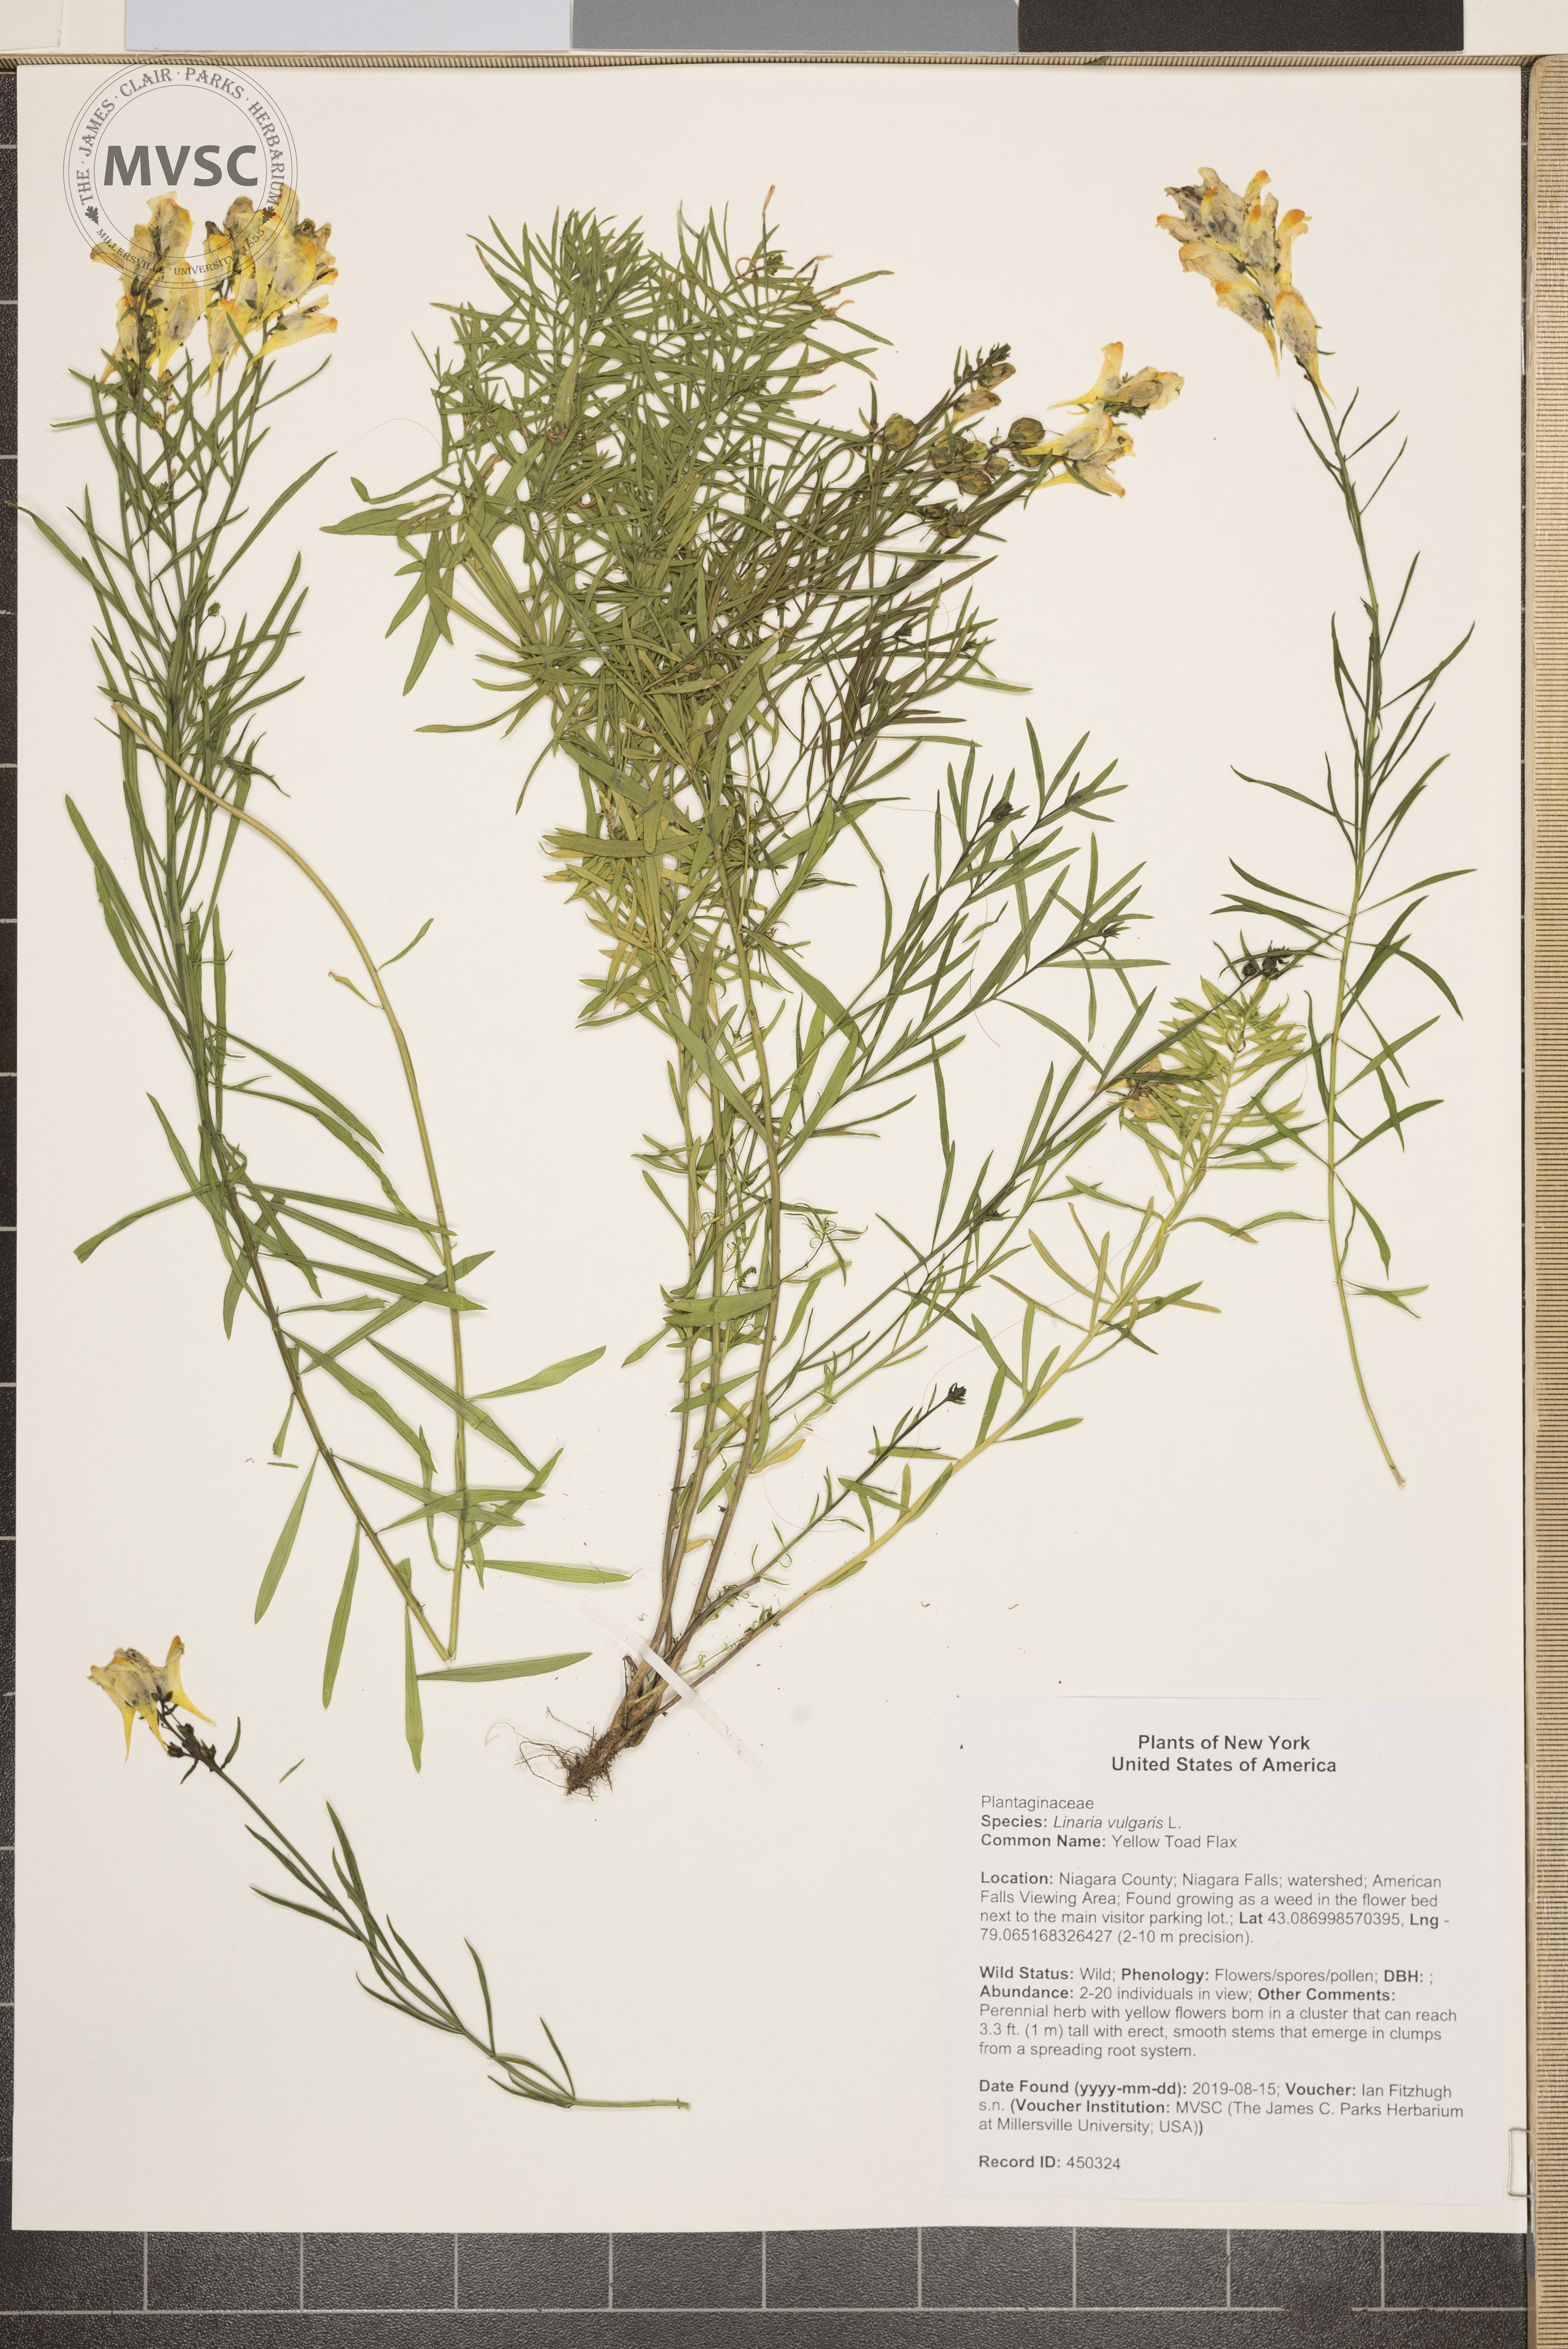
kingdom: Plantae
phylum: Tracheophyta
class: Magnoliopsida
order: Lamiales
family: Plantaginaceae
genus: Linaria
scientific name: Linaria vulgaris
